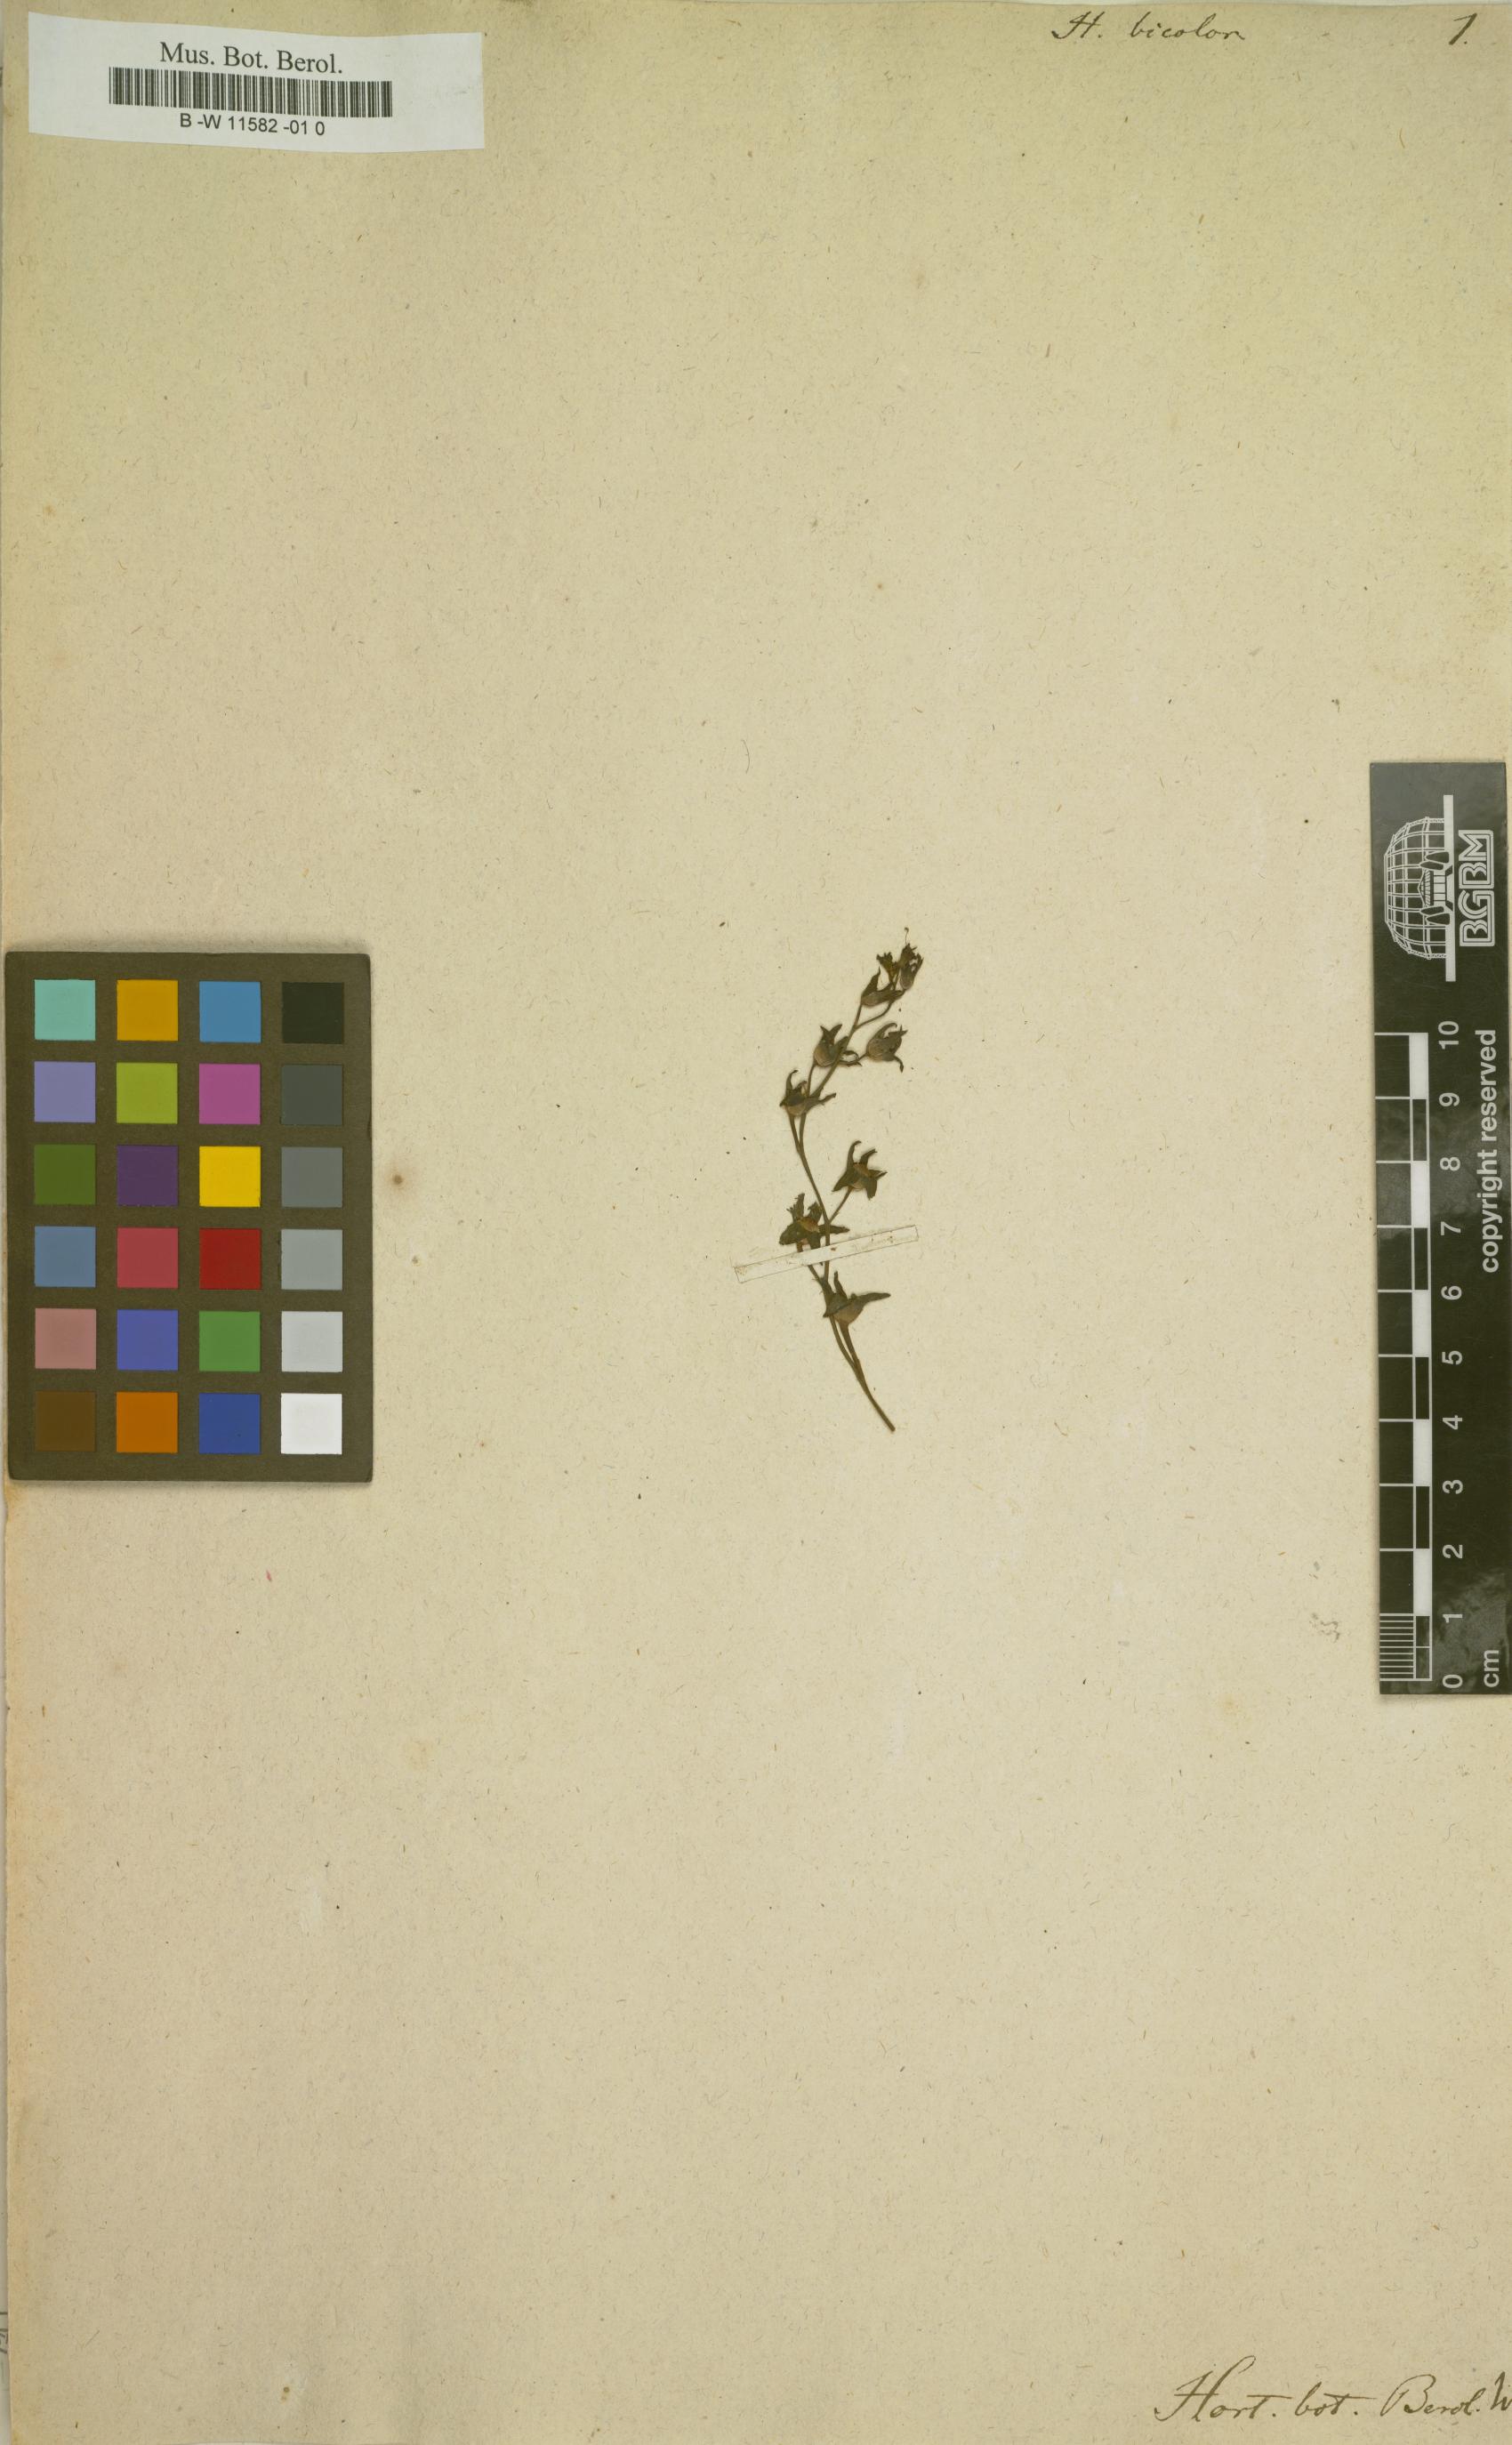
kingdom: Plantae
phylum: Tracheophyta
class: Magnoliopsida
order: Lamiales
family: Mazaceae
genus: Mazus
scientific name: Mazus pumilus
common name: Japanese mazus
